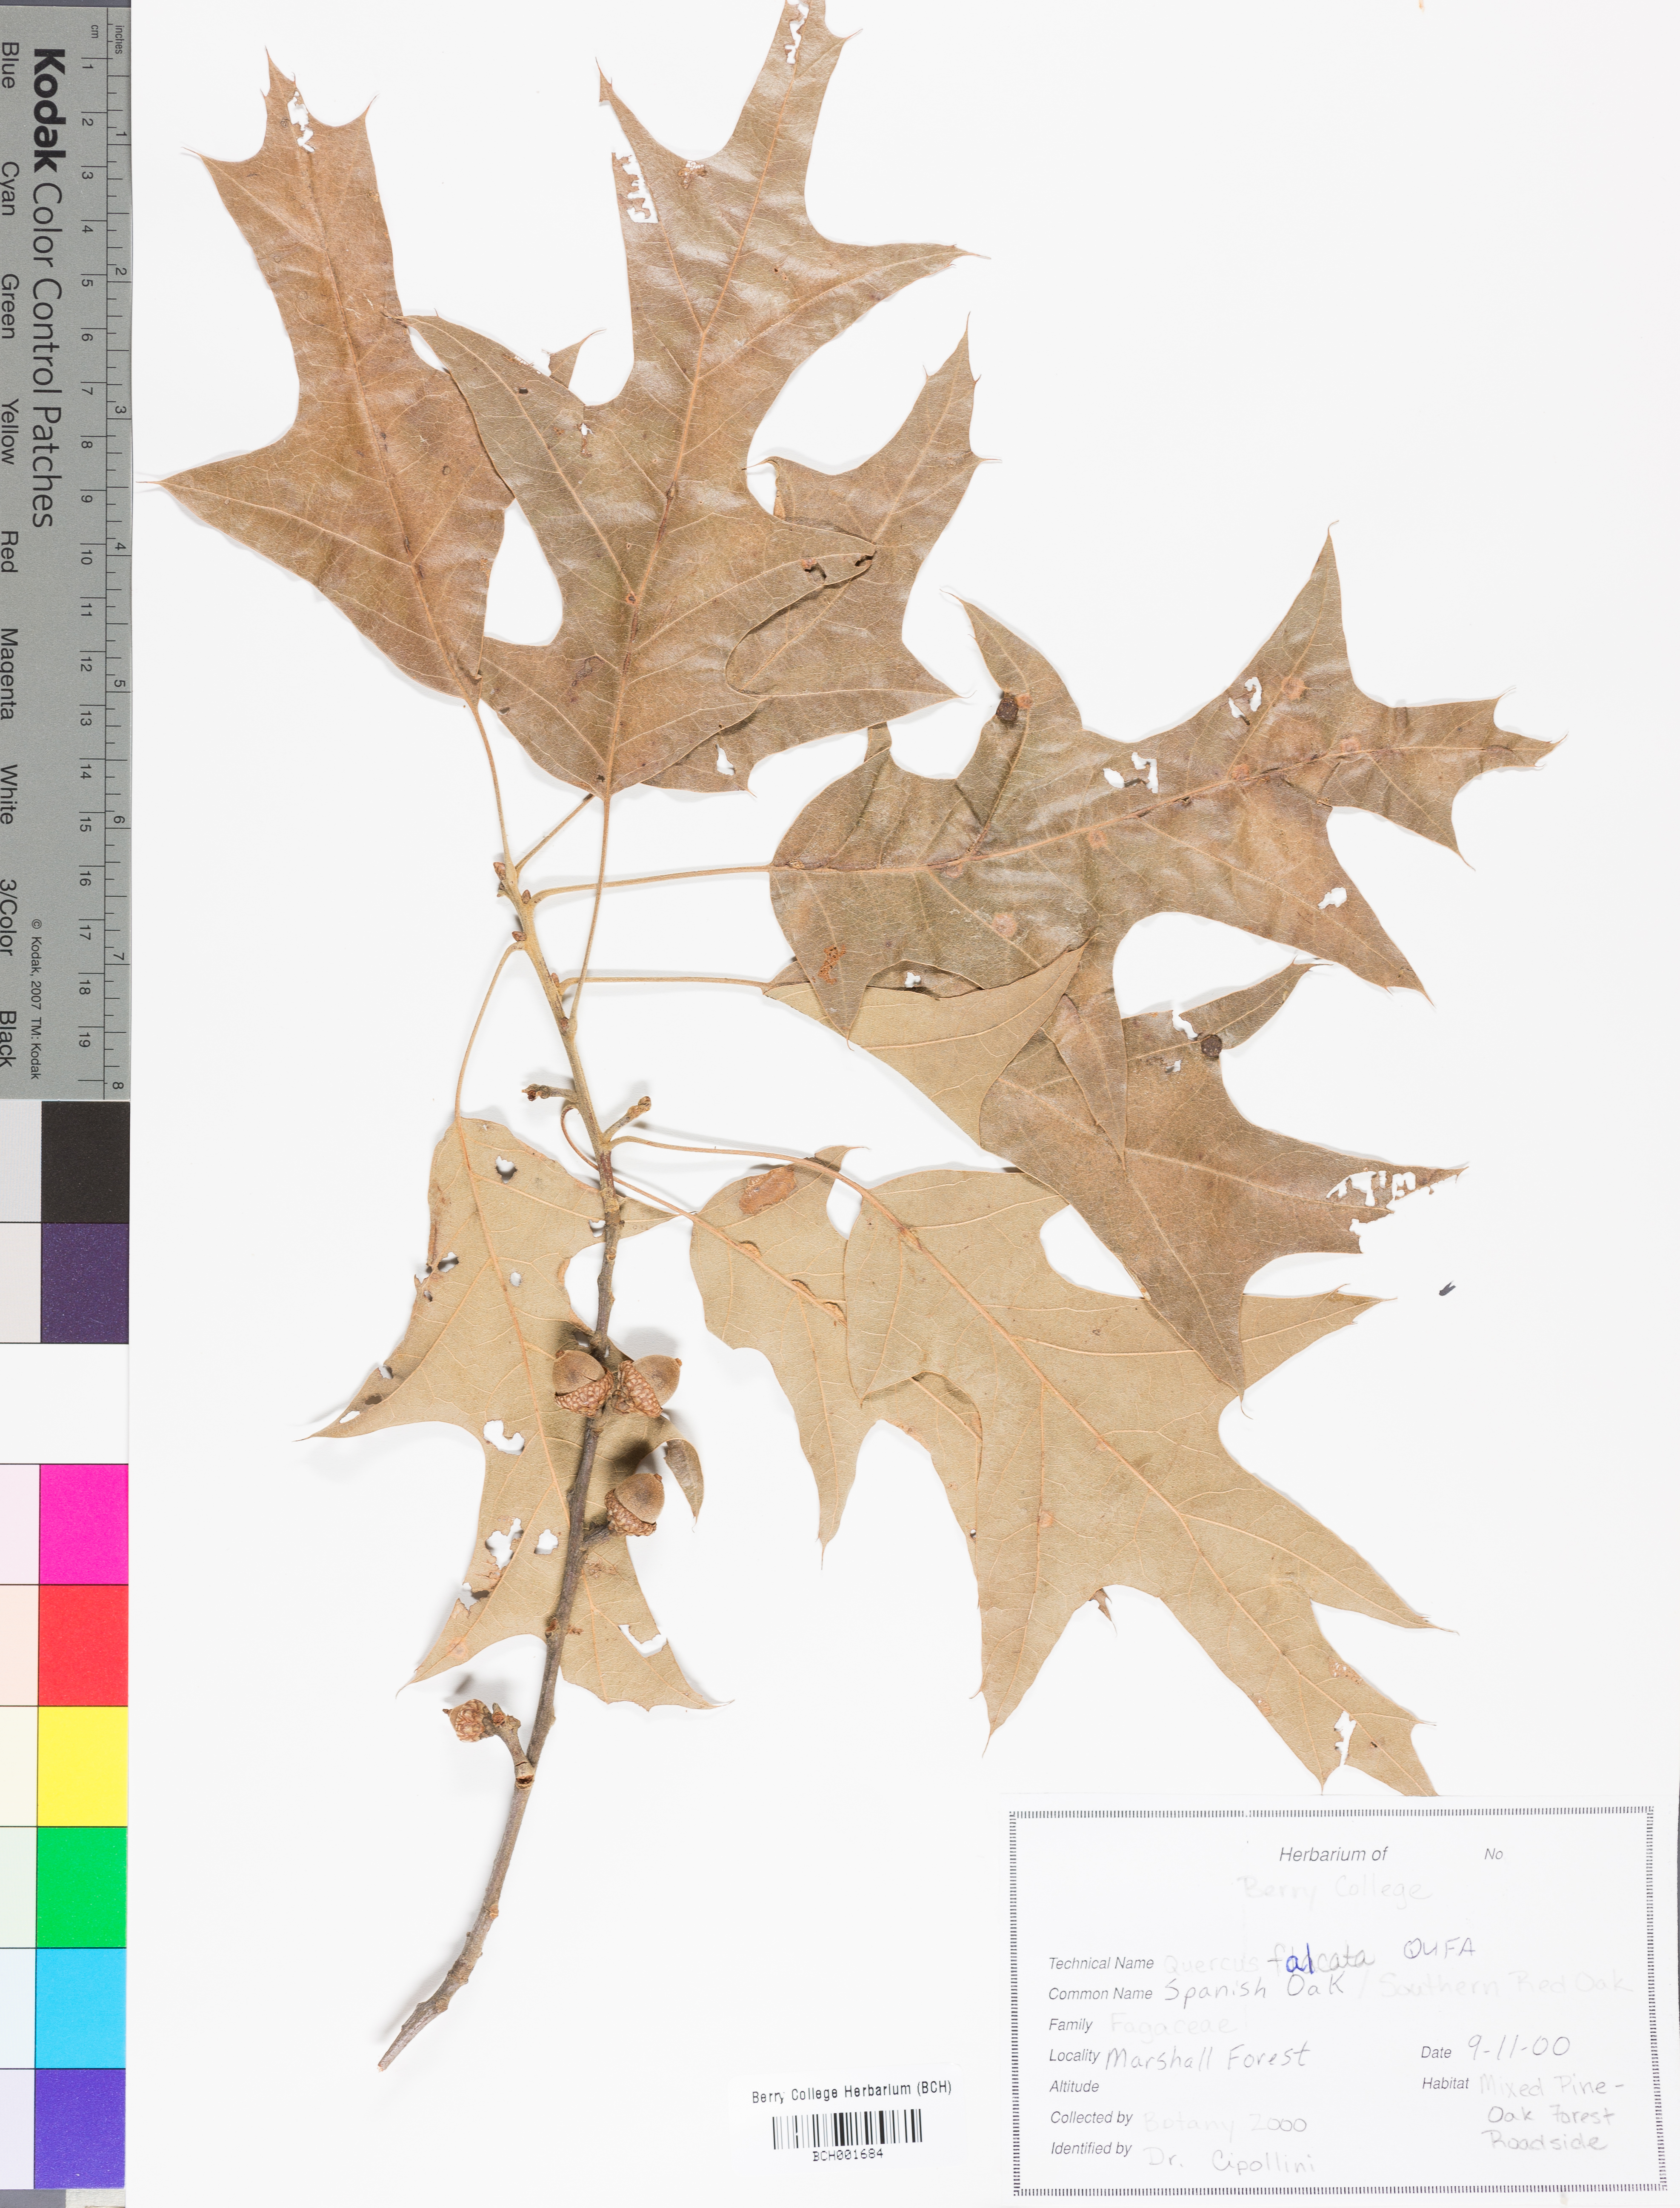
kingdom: Plantae
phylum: Tracheophyta
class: Magnoliopsida
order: Fagales
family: Fagaceae
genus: Quercus
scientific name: Quercus falcata
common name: Southern red oak
